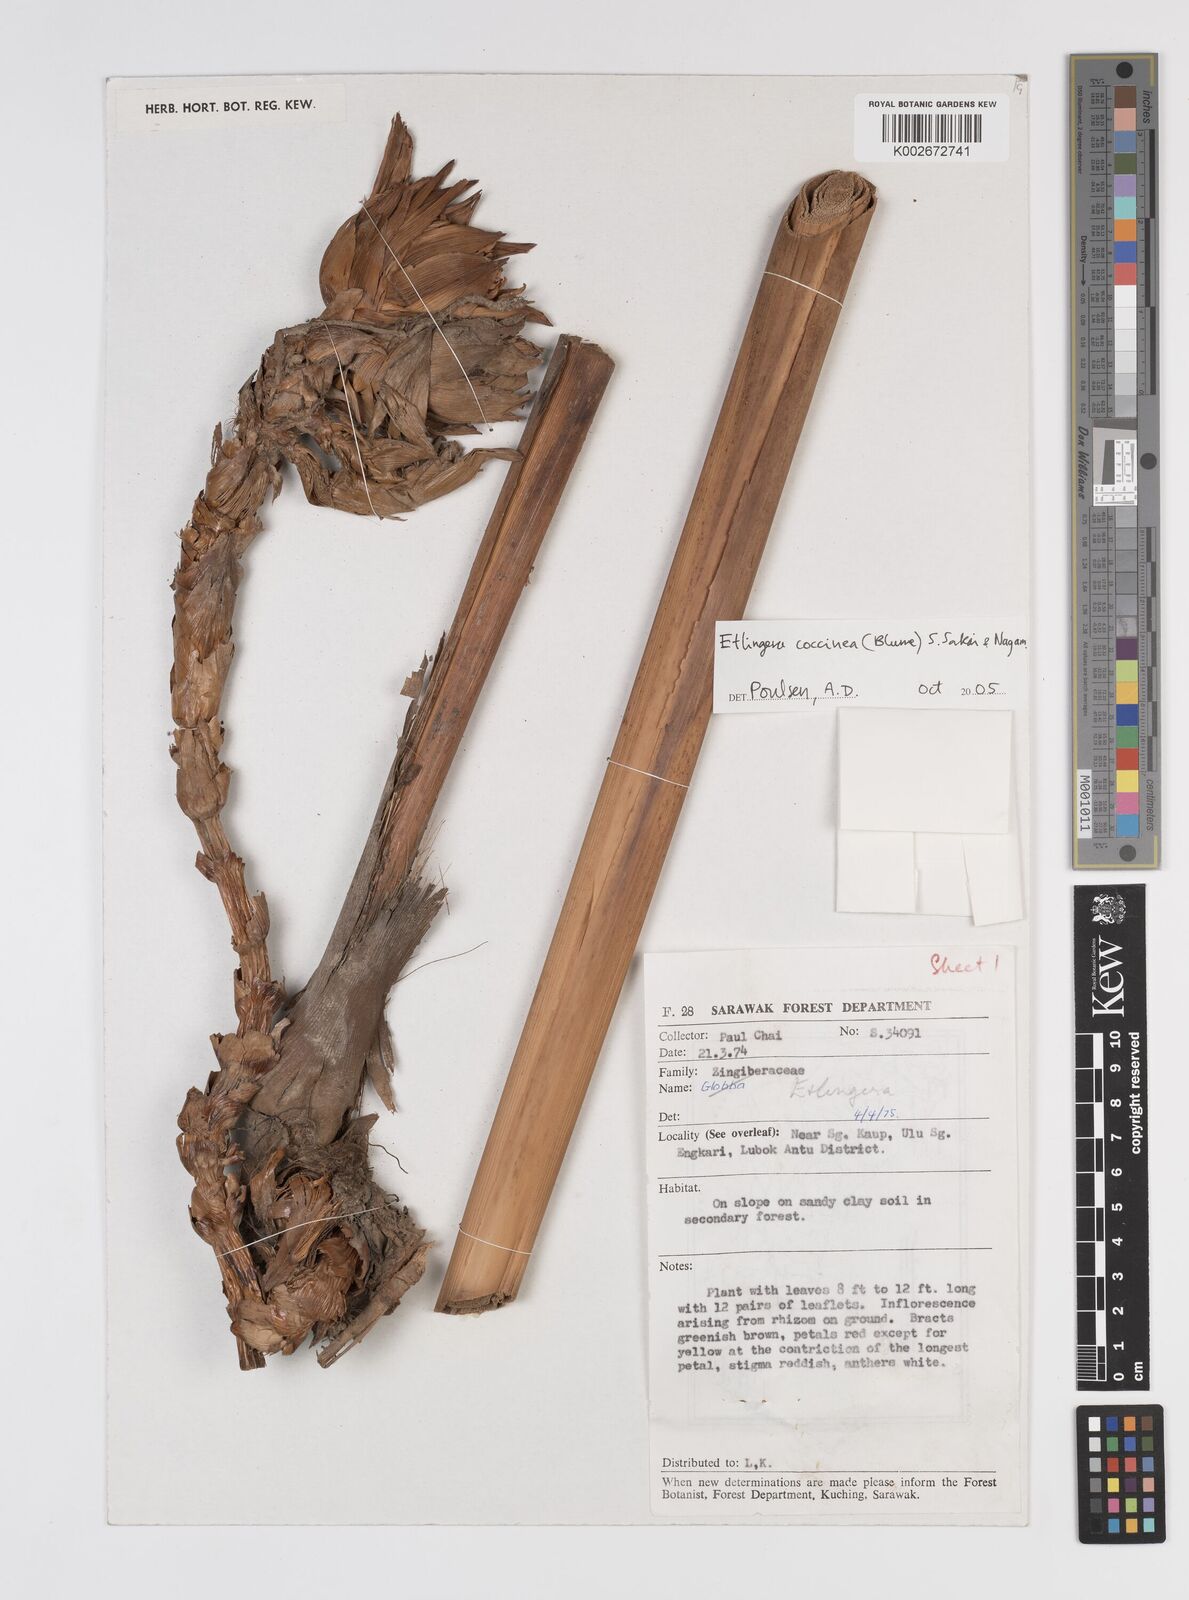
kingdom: Plantae
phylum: Tracheophyta
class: Liliopsida
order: Zingiberales
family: Zingiberaceae
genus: Etlingera
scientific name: Etlingera coccinea
